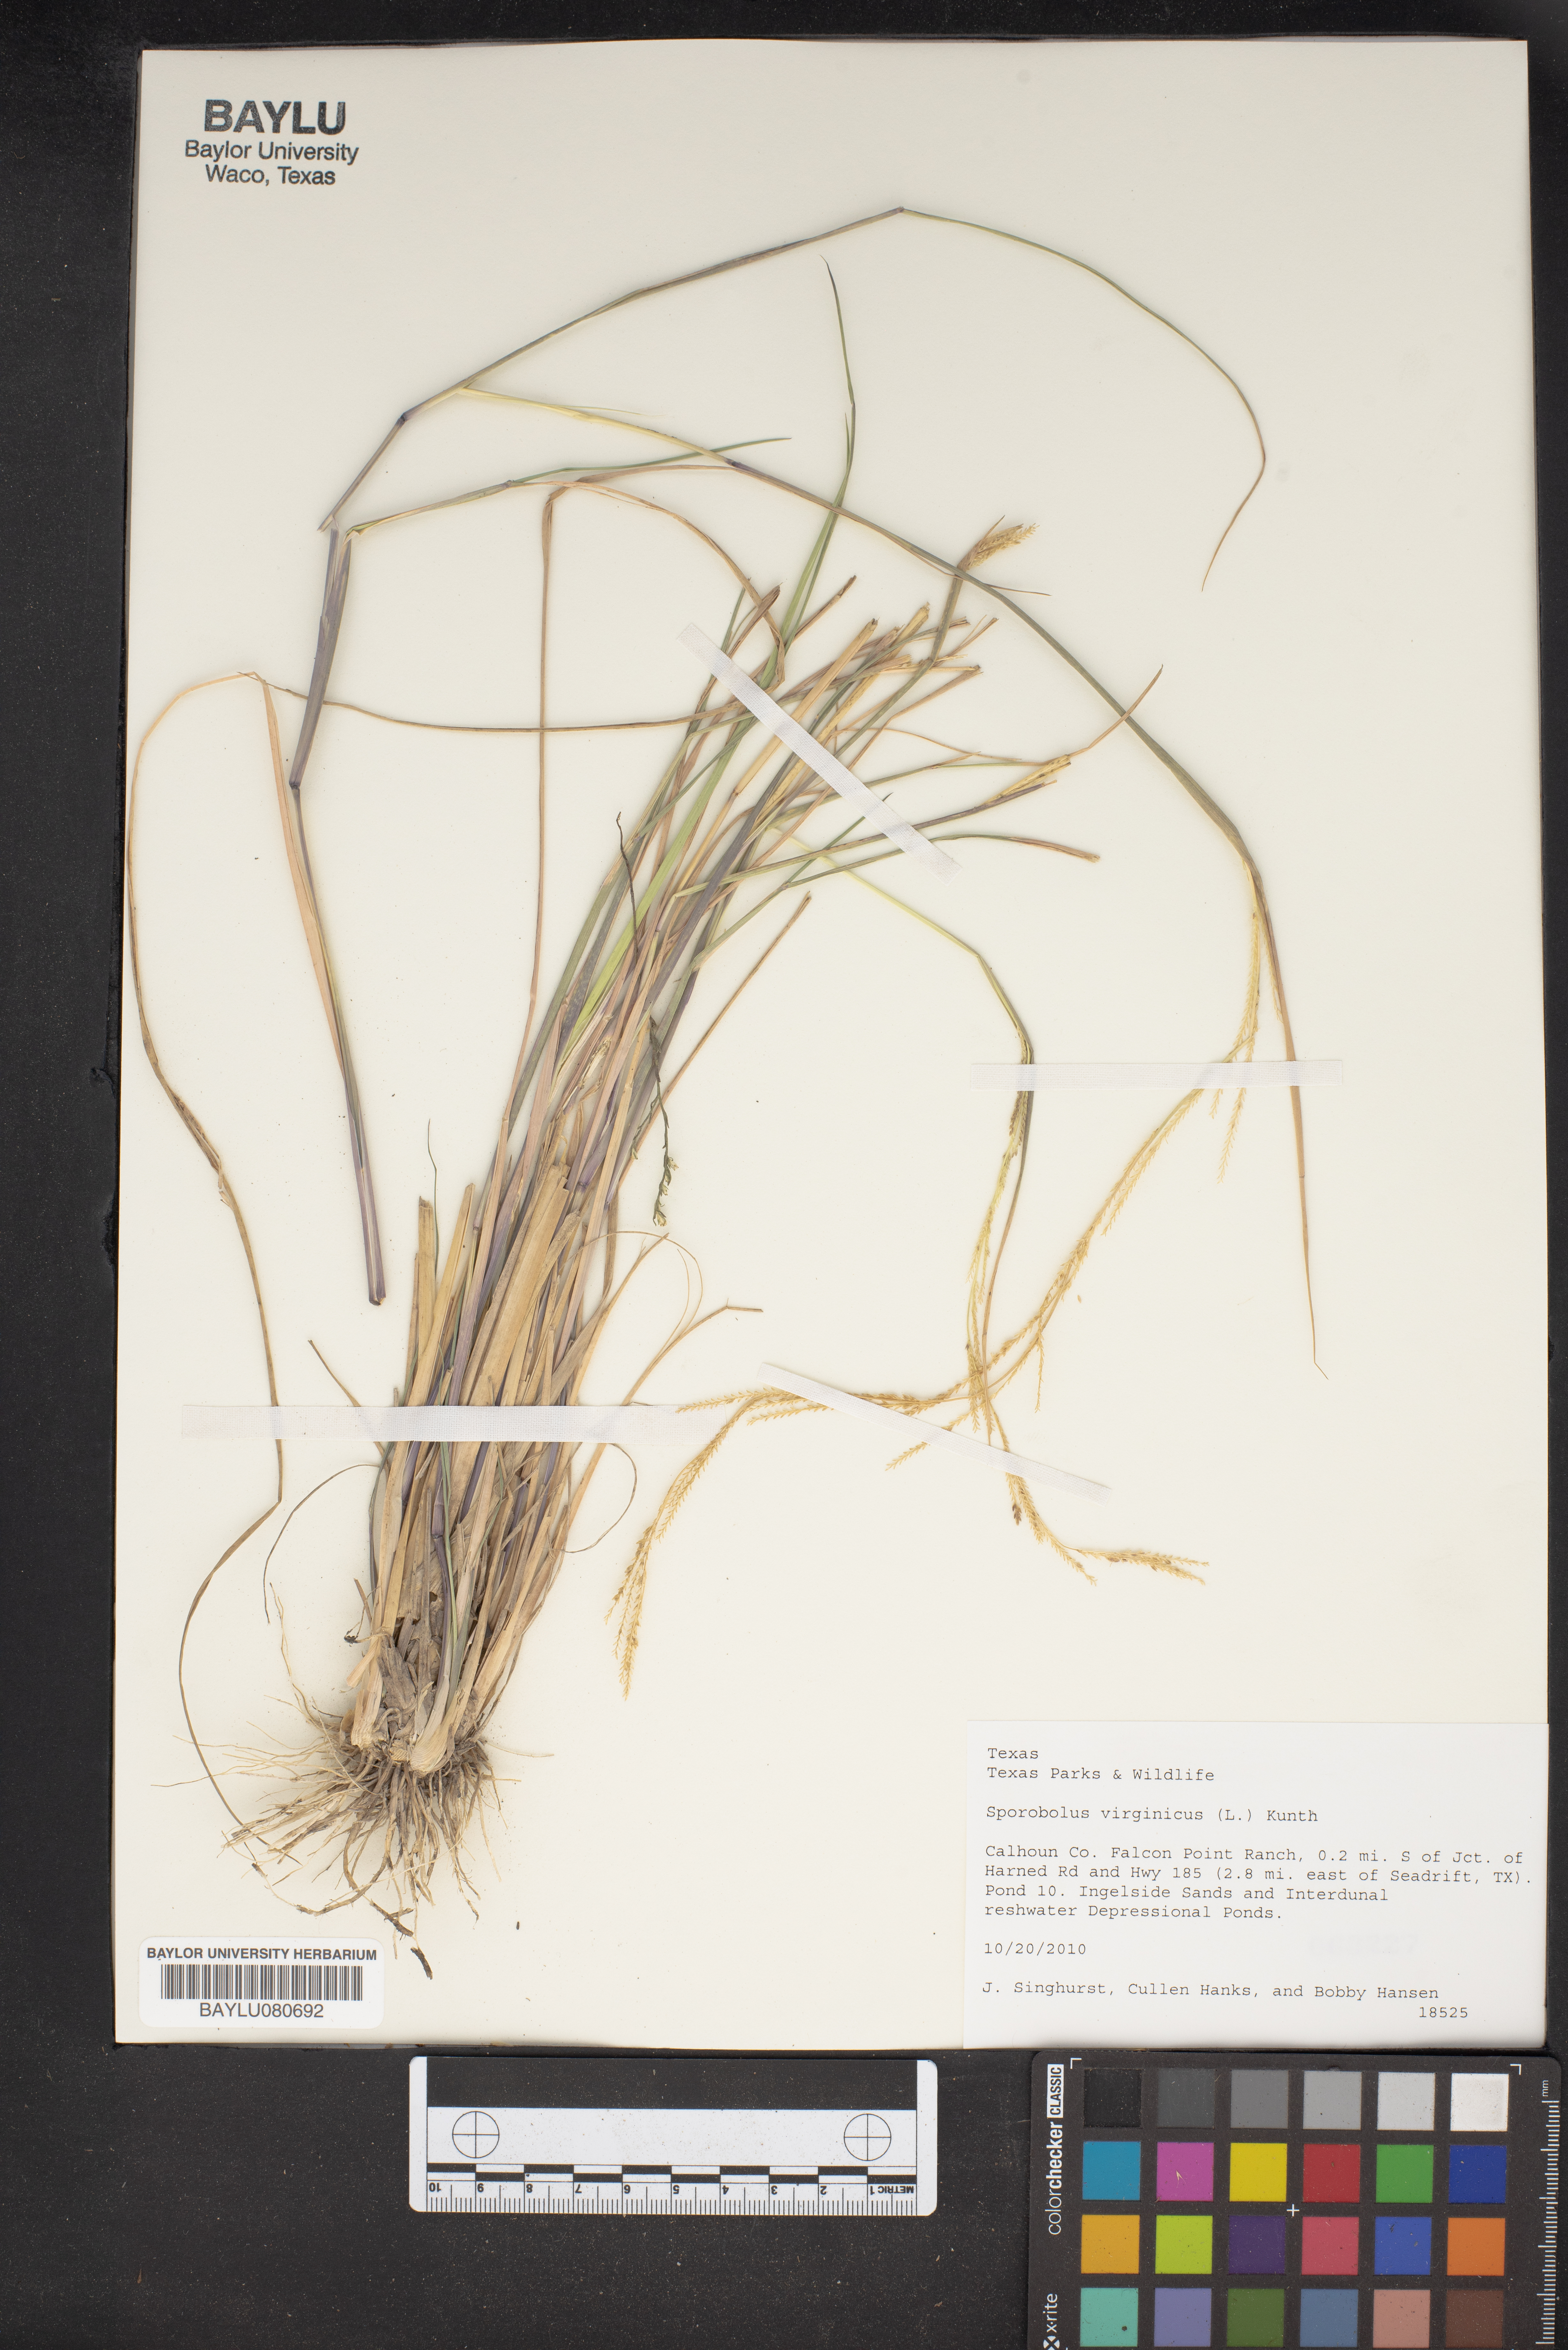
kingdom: Plantae
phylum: Tracheophyta
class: Liliopsida
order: Poales
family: Poaceae
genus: Sporobolus
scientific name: Sporobolus virginicus
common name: Beach dropseed
